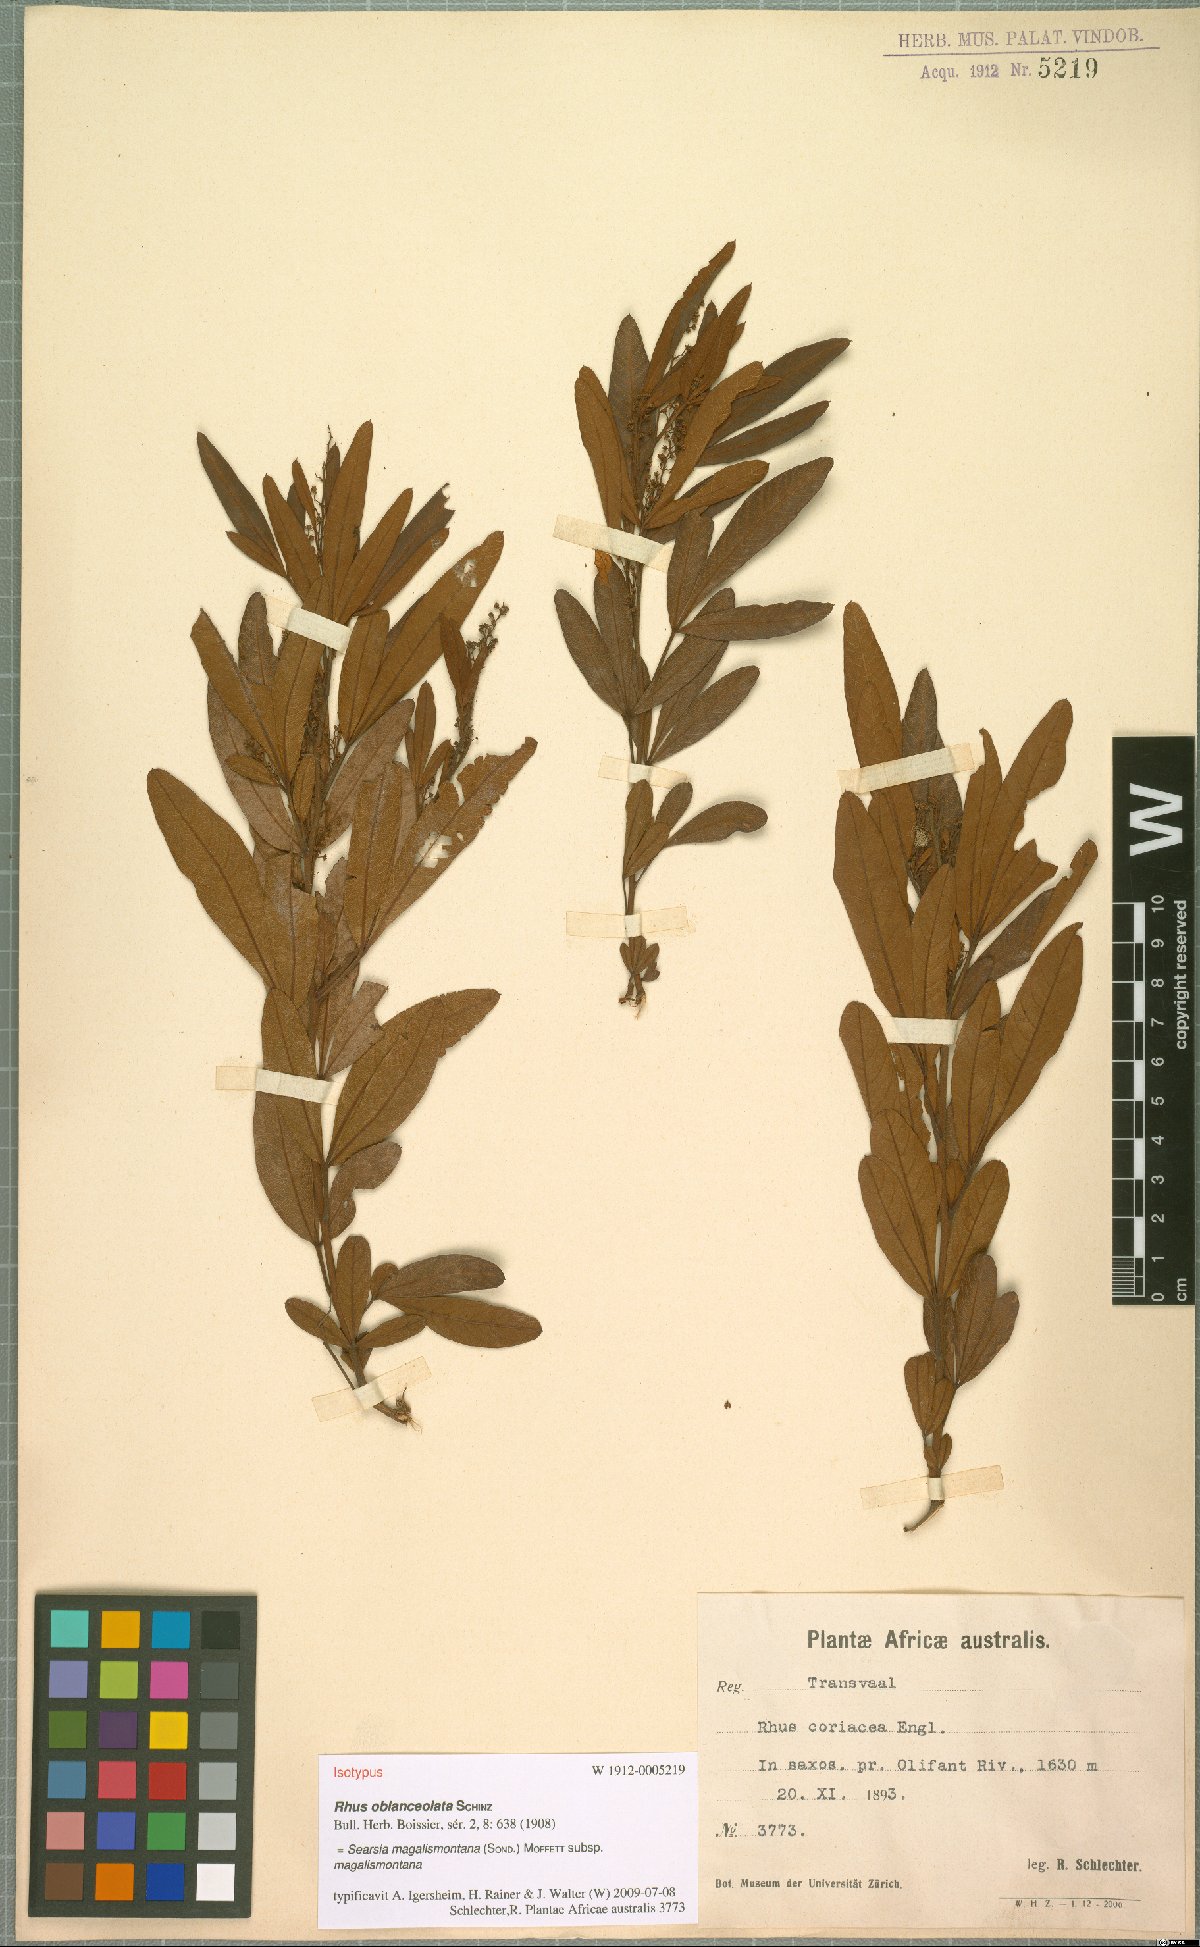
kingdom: Plantae
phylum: Tracheophyta
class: Magnoliopsida
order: Sapindales
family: Anacardiaceae
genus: Searsia
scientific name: Searsia magalismontana
